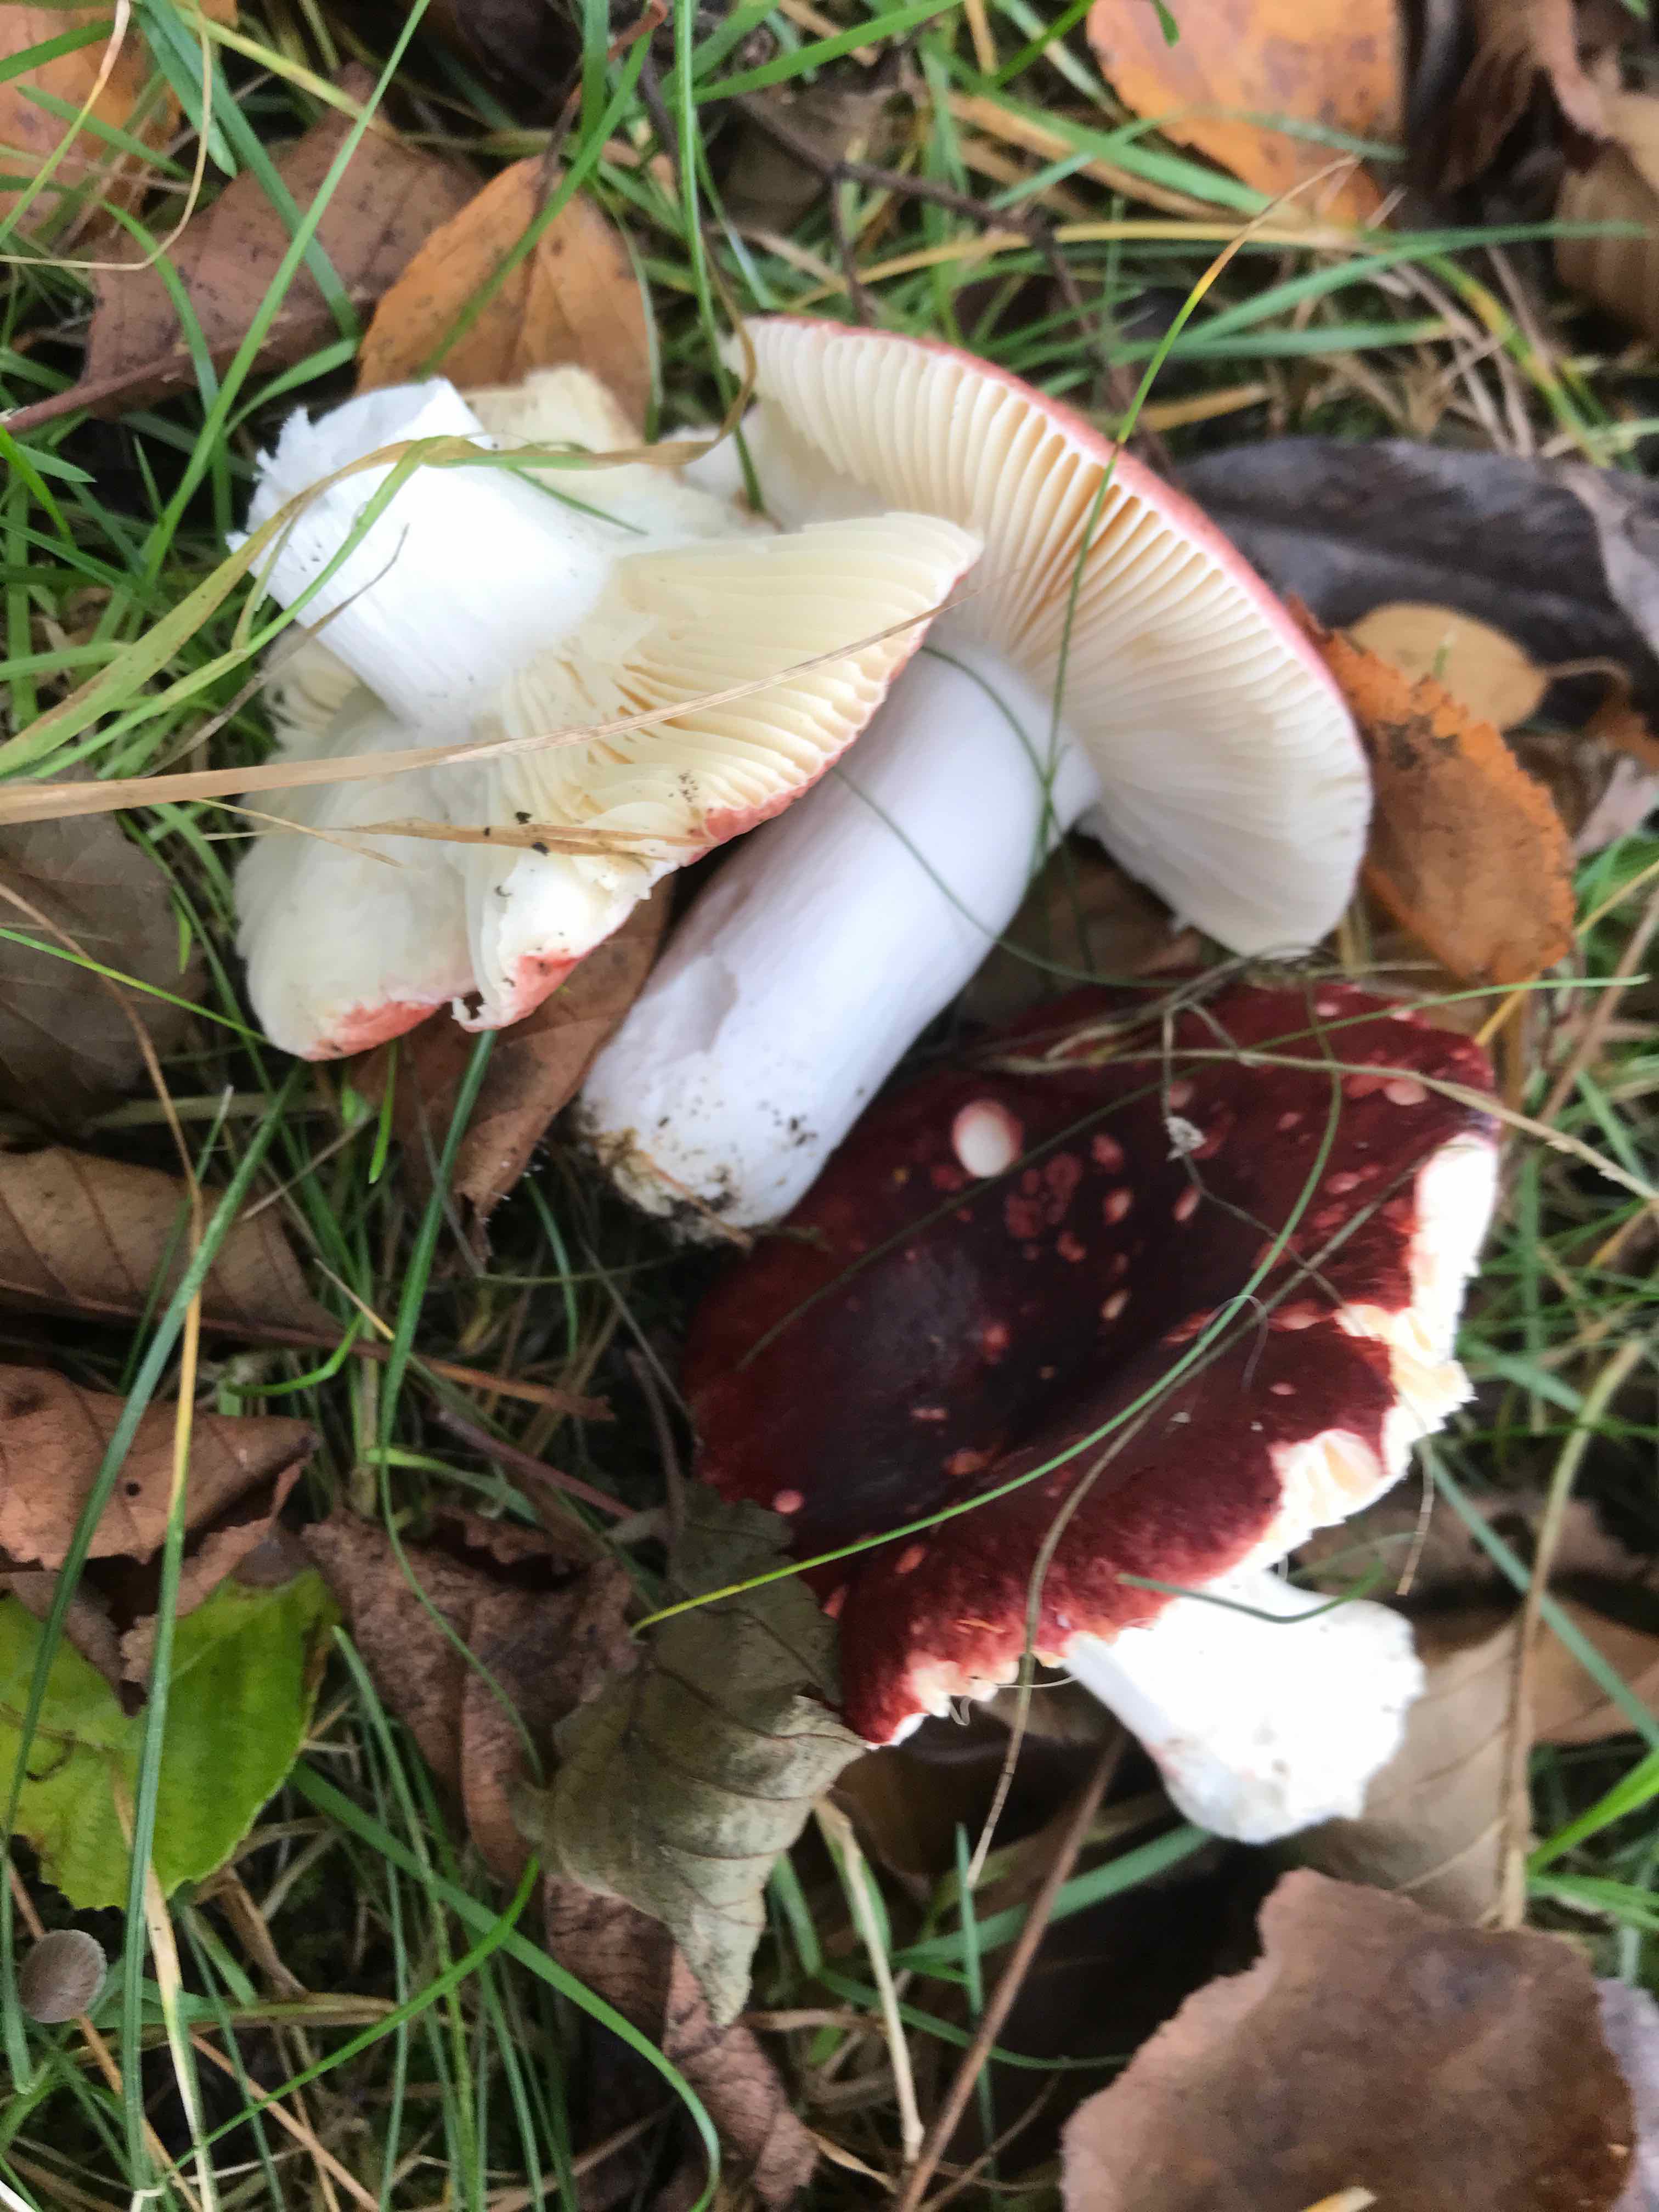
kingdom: Fungi
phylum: Basidiomycota
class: Agaricomycetes
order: Russulales
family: Russulaceae
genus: Russula
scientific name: Russula velenovskyi
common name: orangerød skørhat
